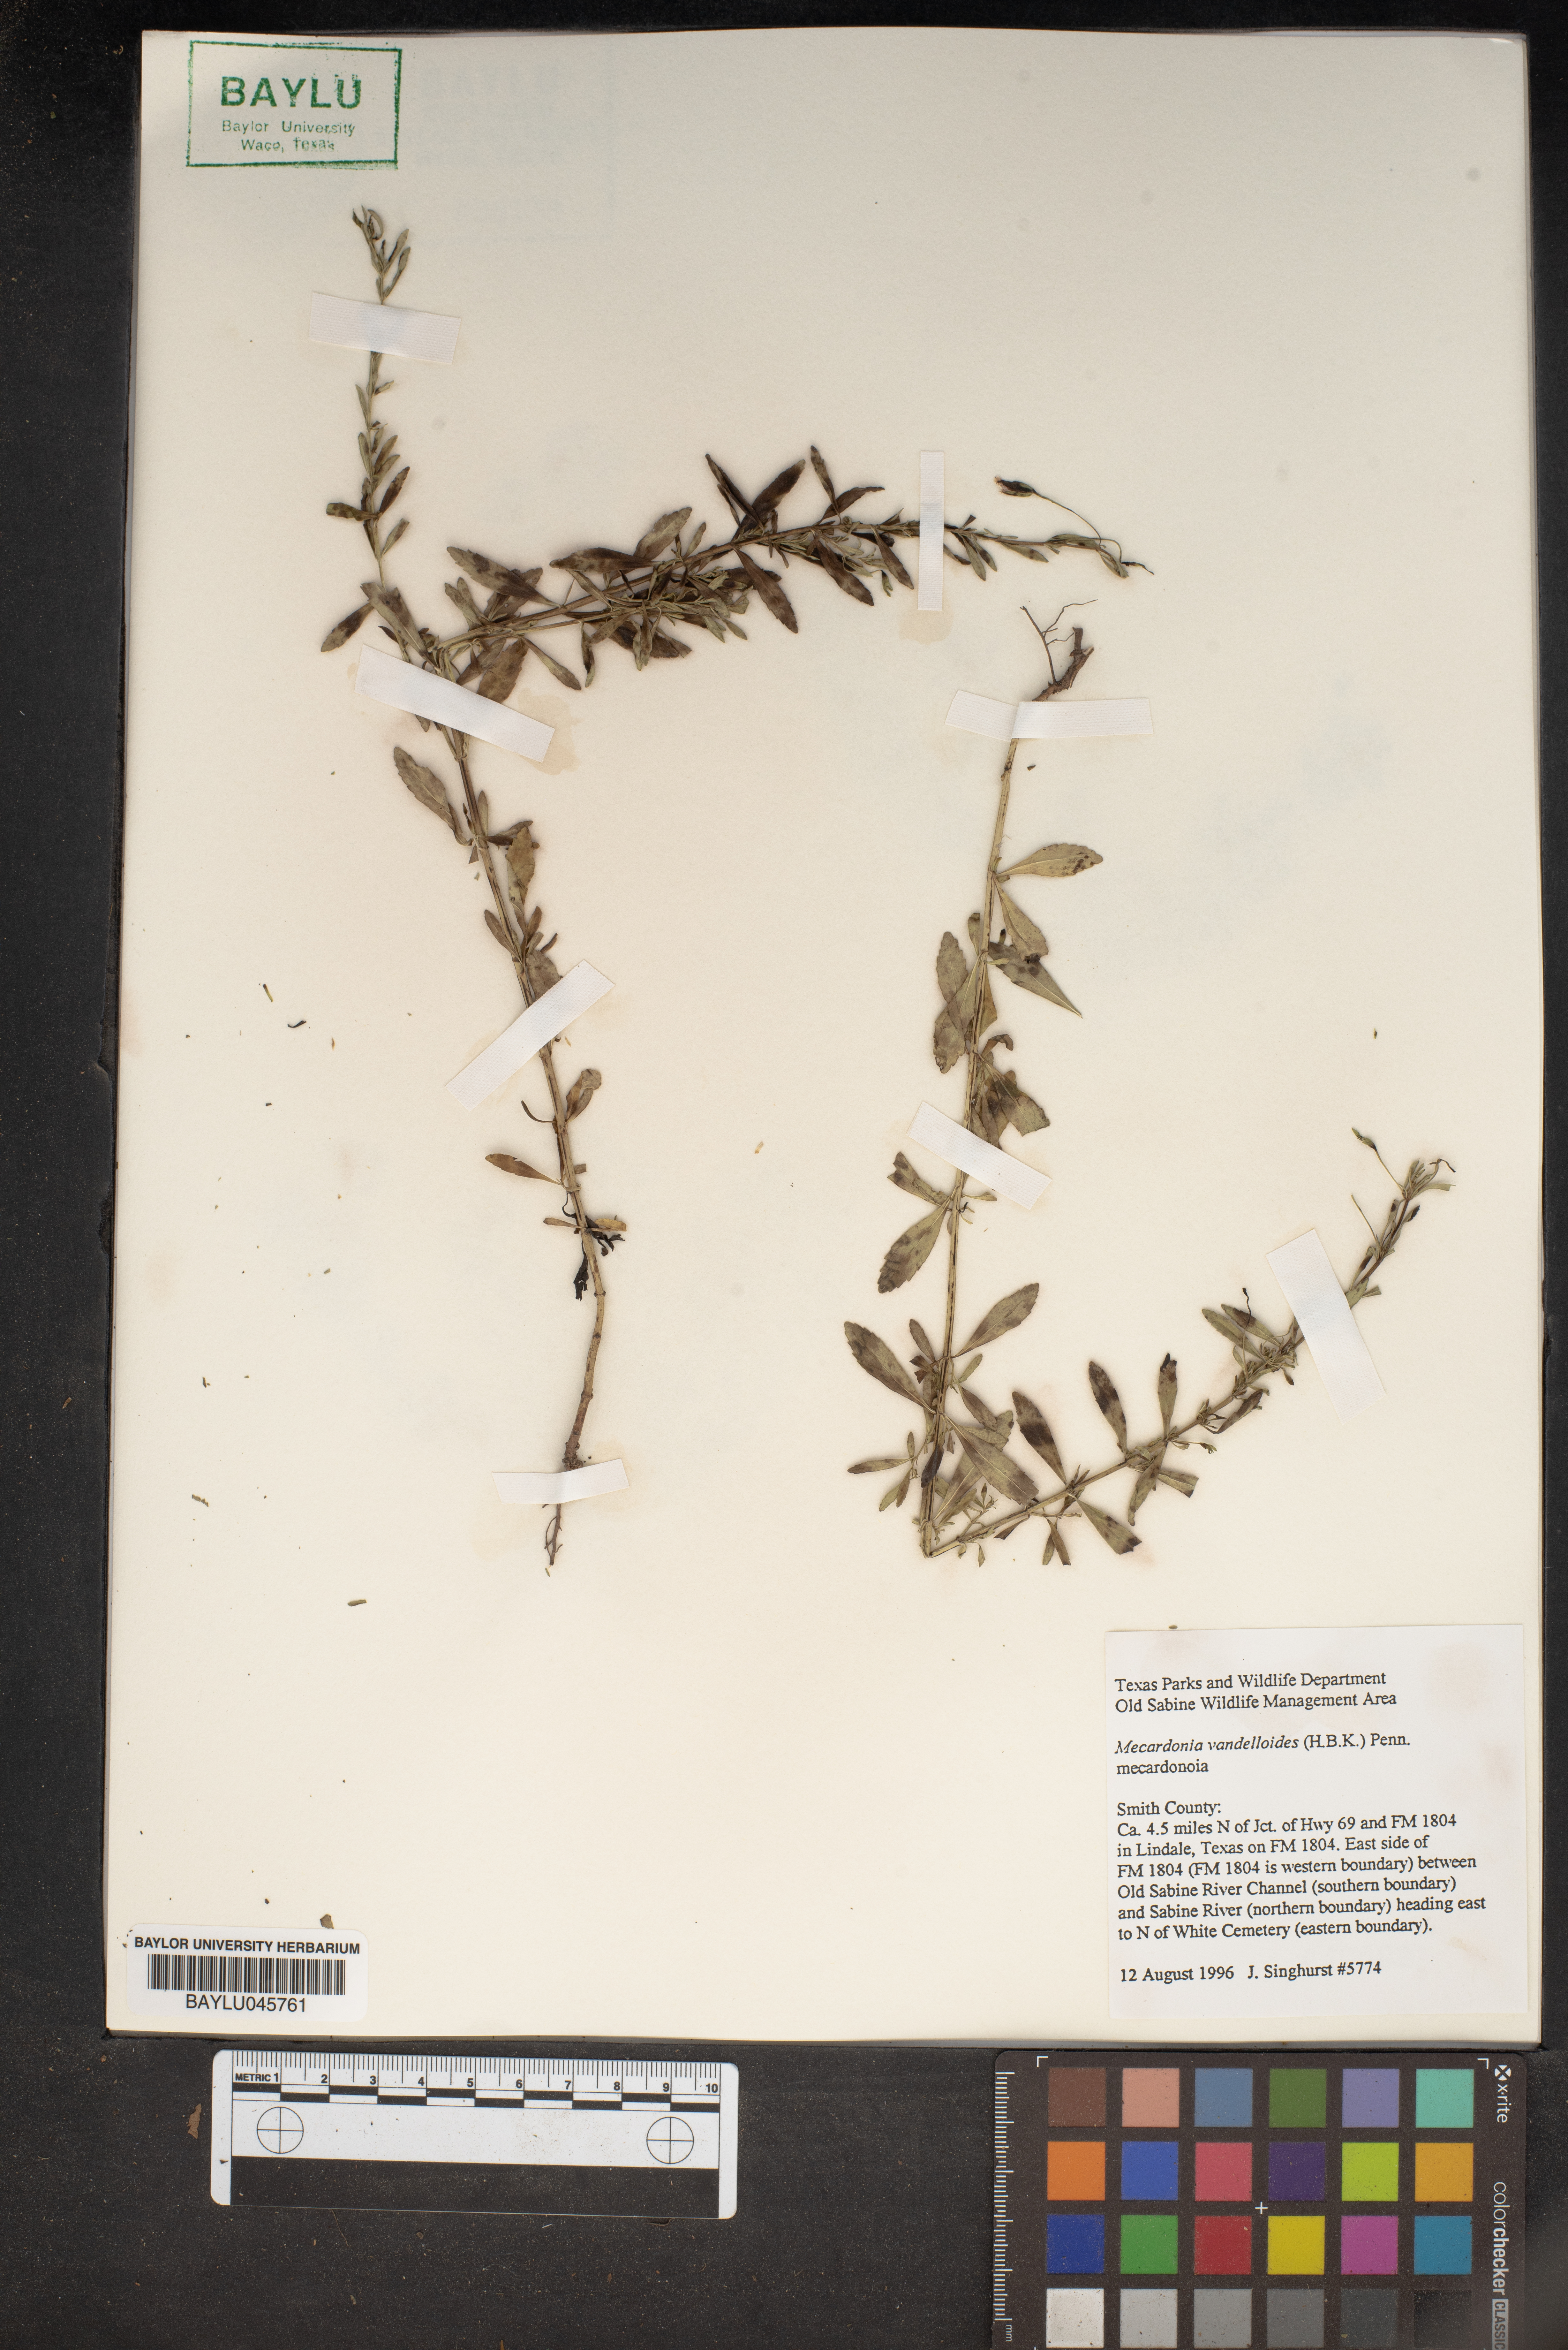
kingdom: Plantae
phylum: Tracheophyta
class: Magnoliopsida
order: Lamiales
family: Plantaginaceae
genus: Mecardonia
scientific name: Mecardonia procumbens
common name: Baby jump-up
